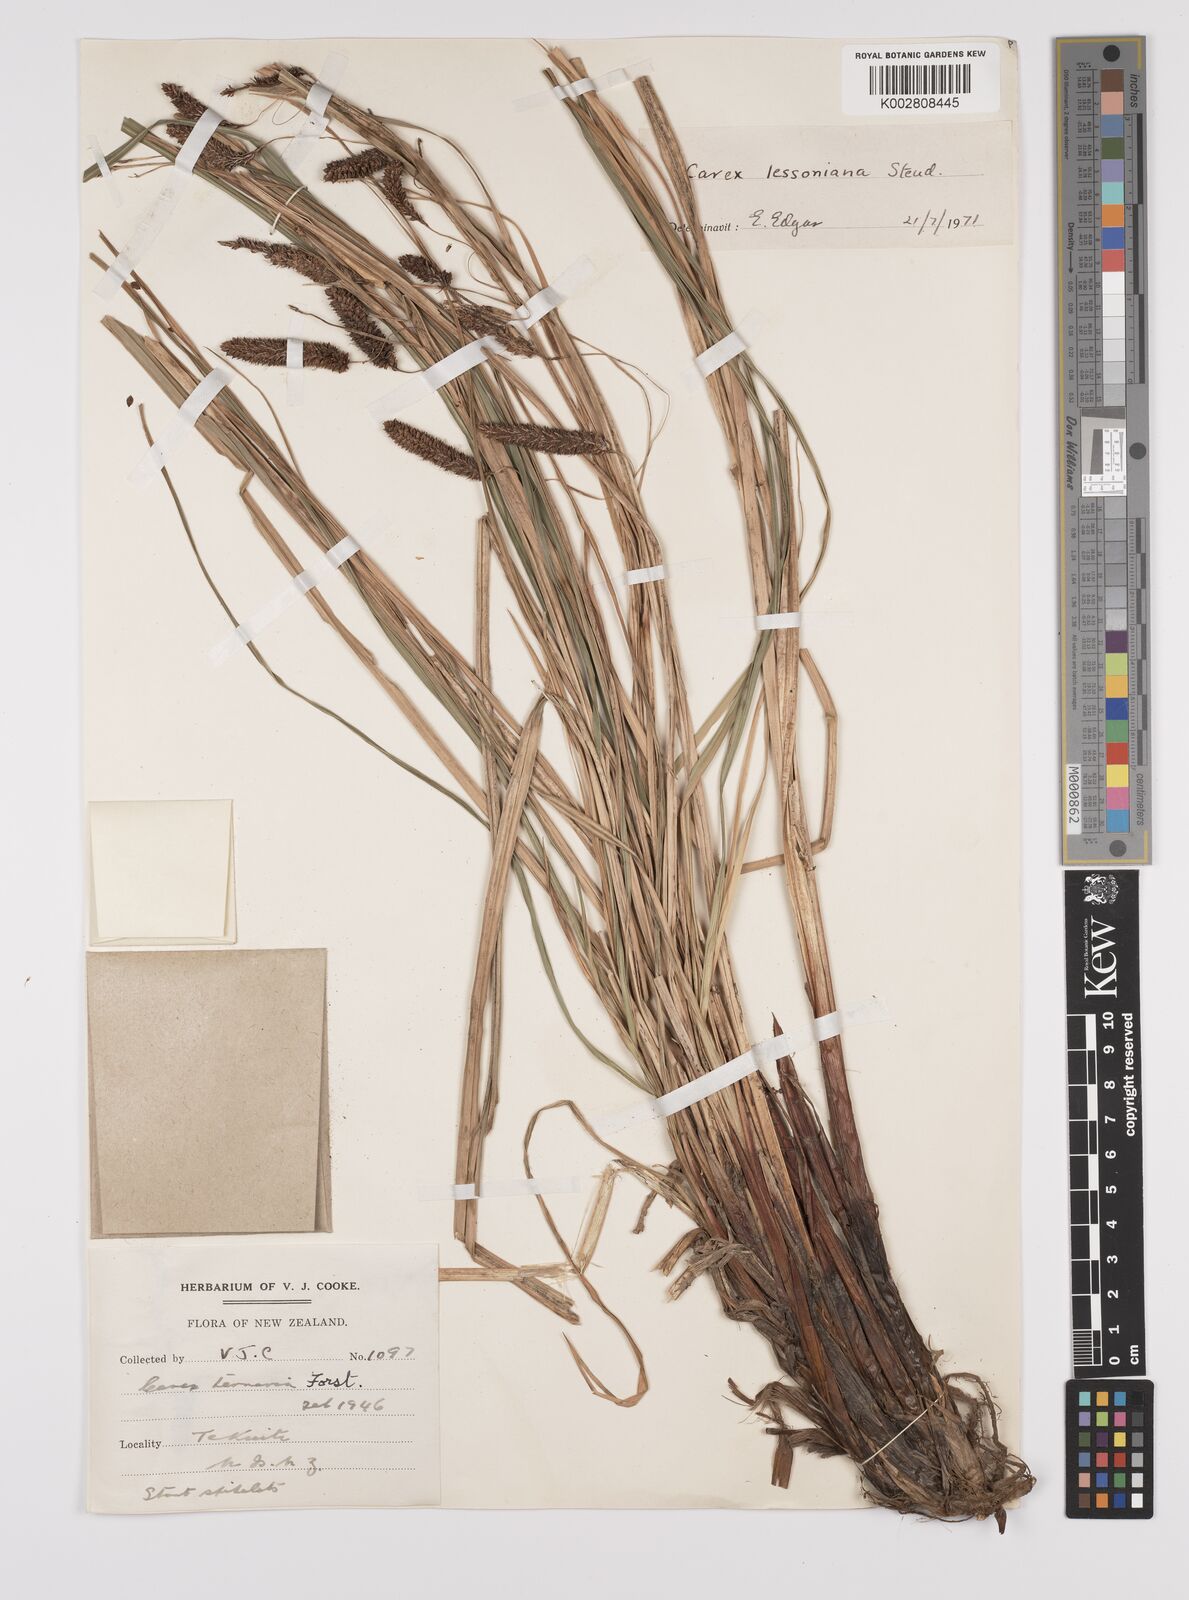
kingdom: Plantae
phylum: Tracheophyta
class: Liliopsida
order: Poales
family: Cyperaceae
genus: Carex
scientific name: Carex lessoniana
